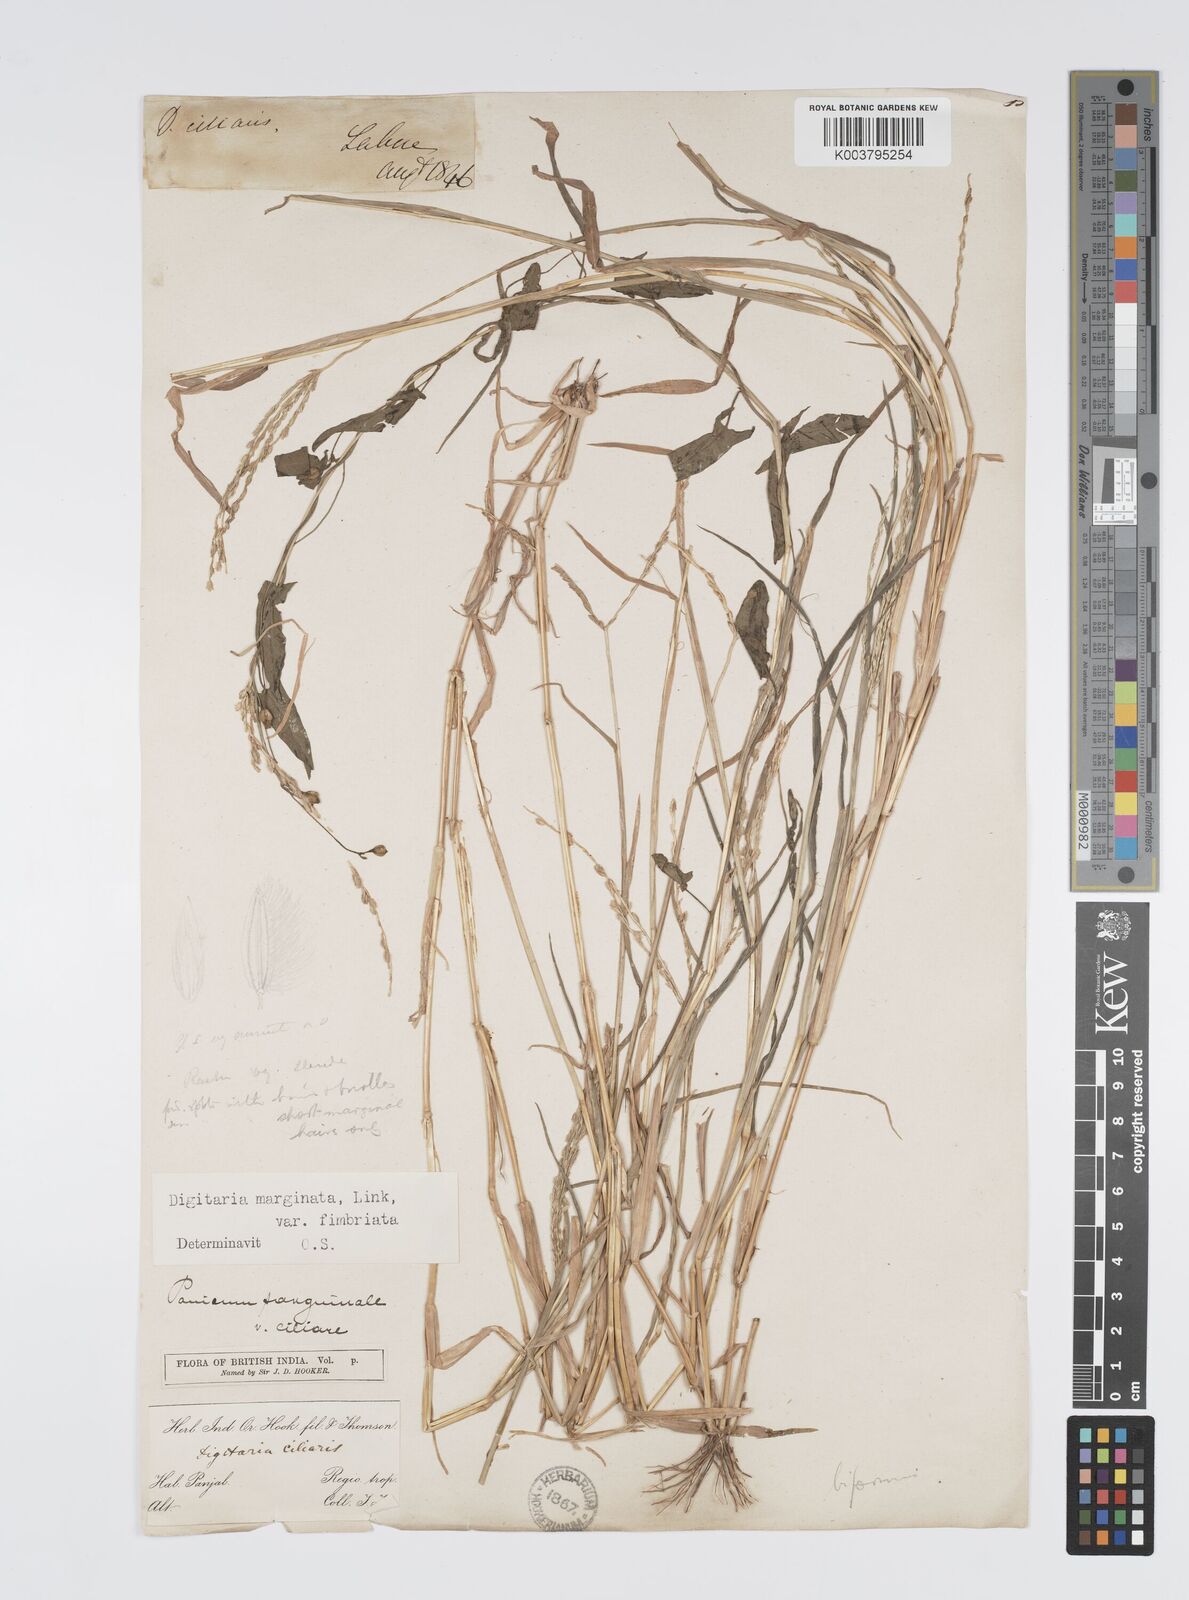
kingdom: Plantae
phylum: Tracheophyta
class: Liliopsida
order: Poales
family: Poaceae
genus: Digitaria
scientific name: Digitaria ciliaris
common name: Tropical finger-grass
